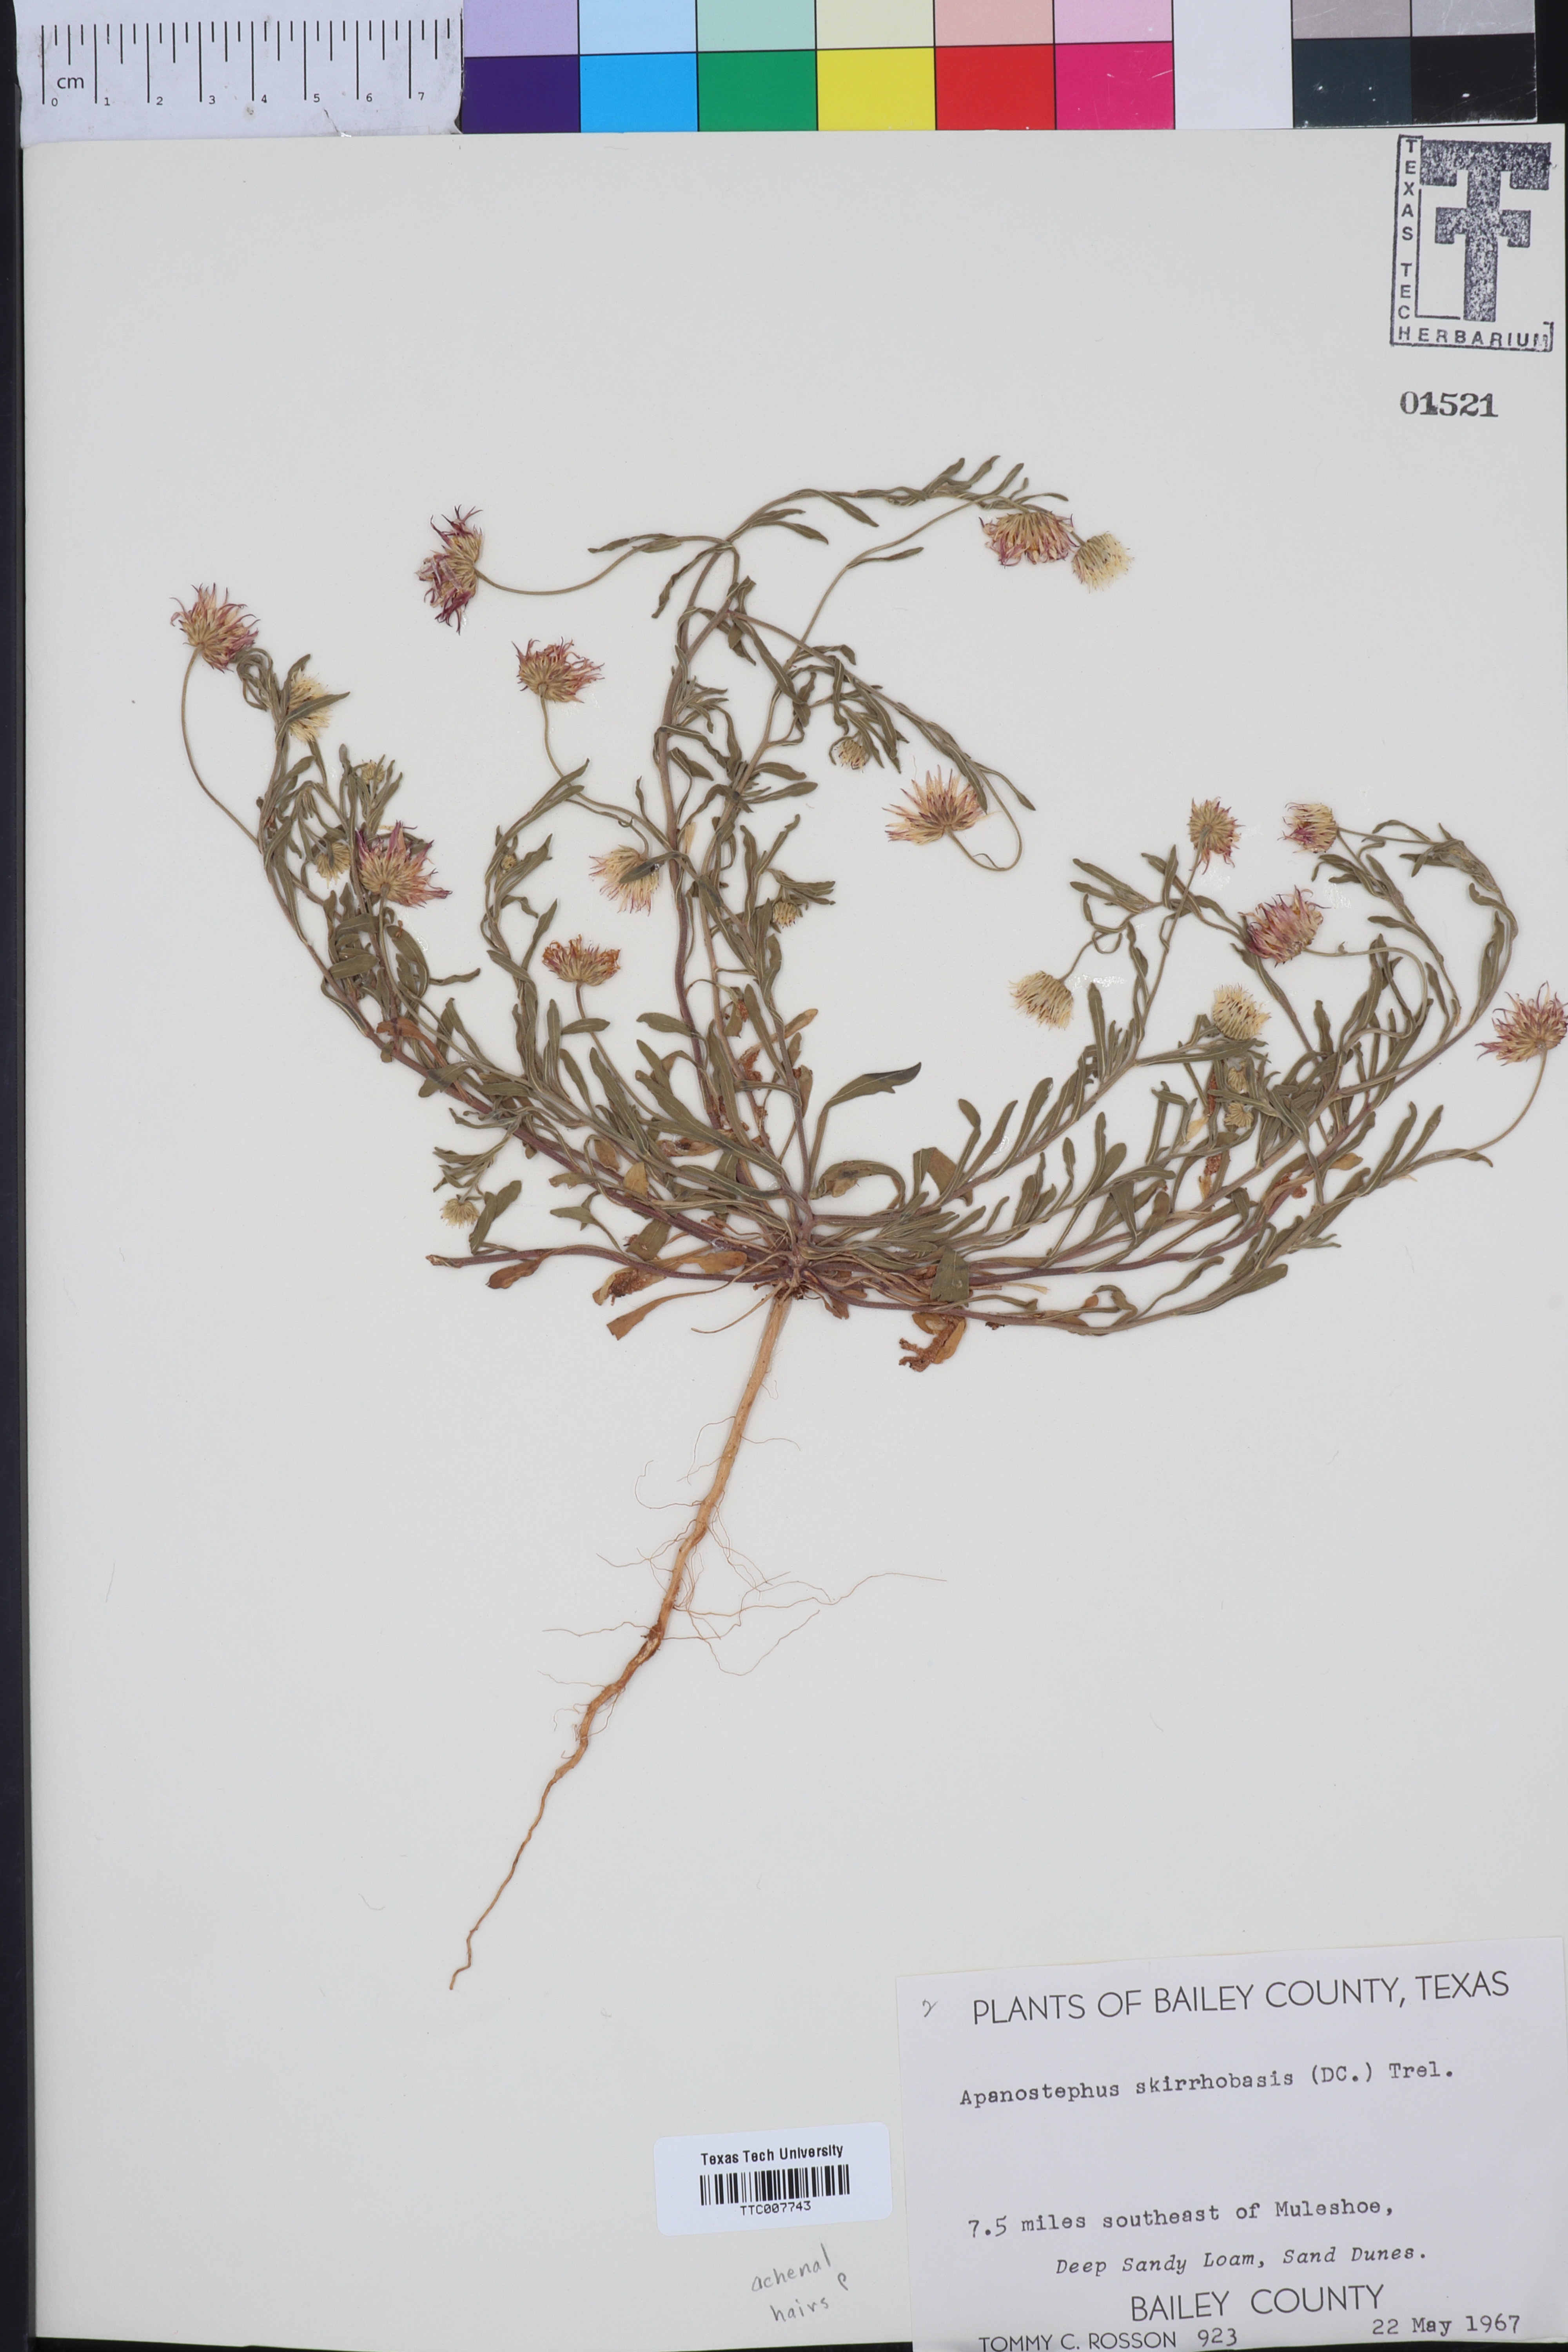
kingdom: Plantae
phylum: Tracheophyta
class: Magnoliopsida
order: Asterales
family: Asteraceae
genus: Aphanostephus
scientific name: Aphanostephus skirrhobasis
